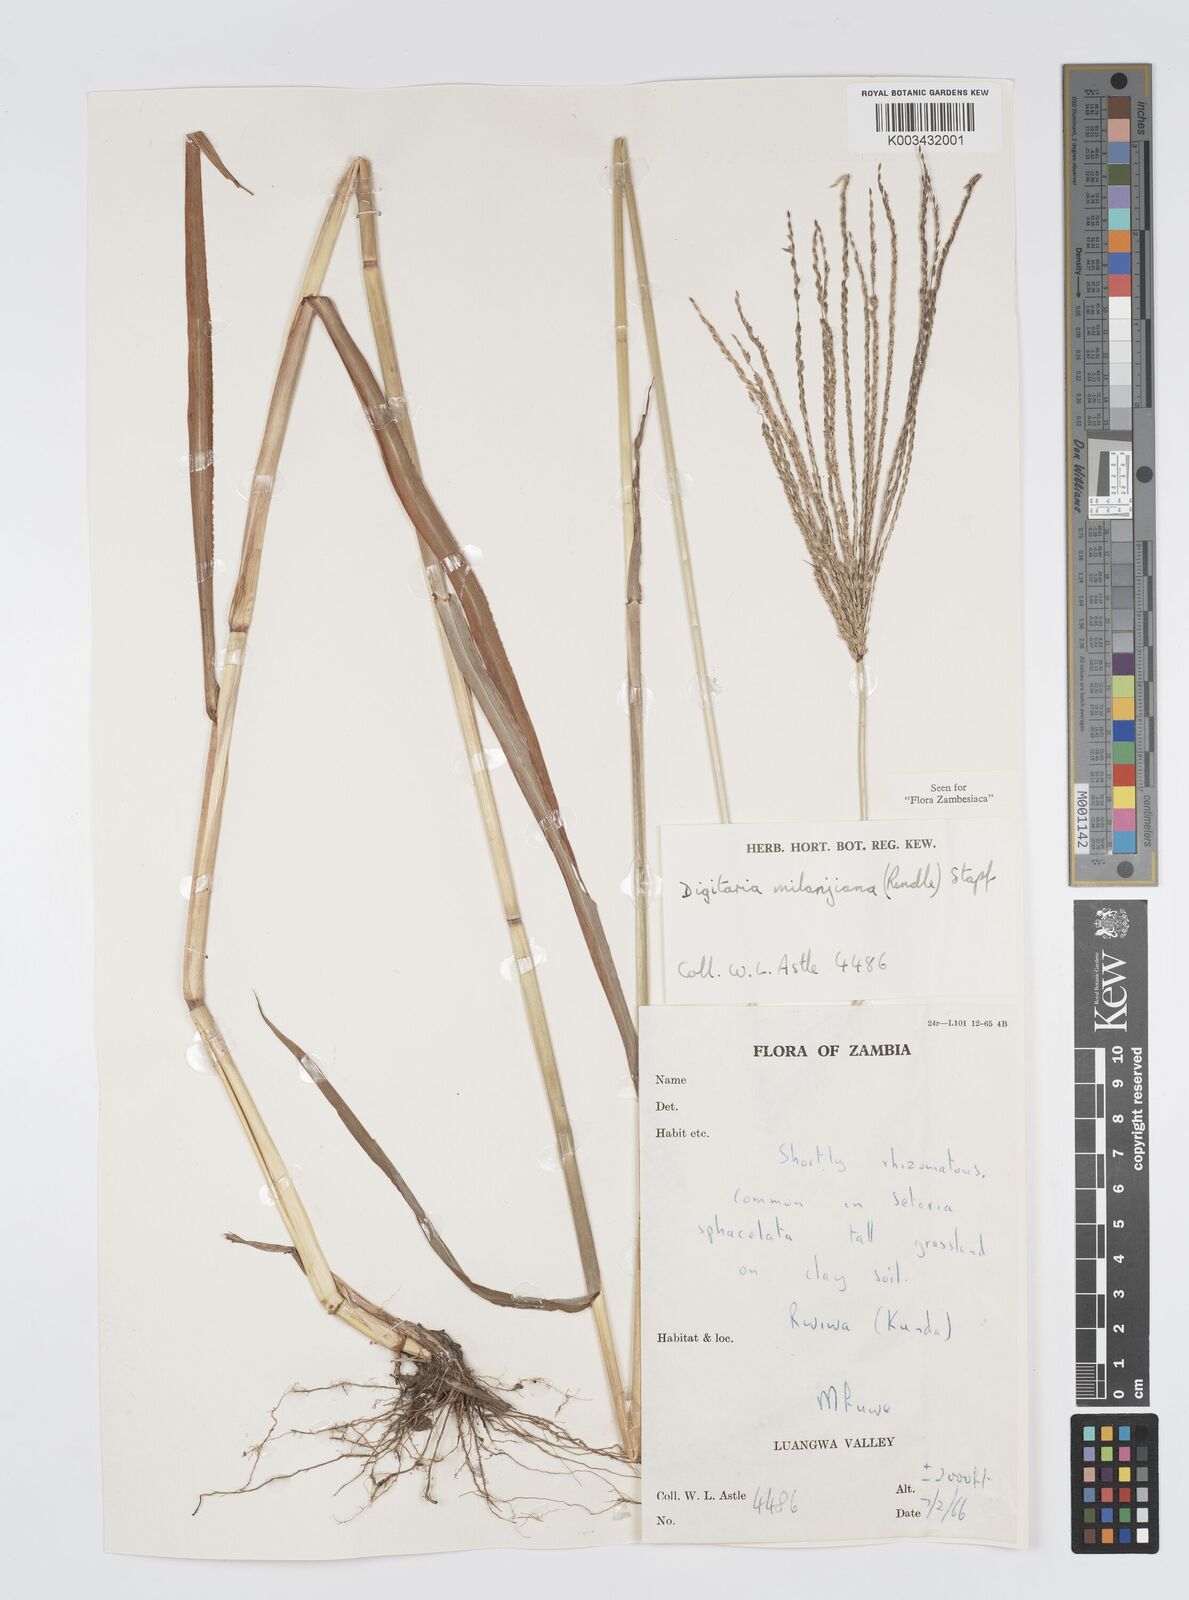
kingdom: Plantae
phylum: Tracheophyta
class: Liliopsida
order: Poales
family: Poaceae
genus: Digitaria
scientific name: Digitaria milanjiana
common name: Madagascar crabgrass
